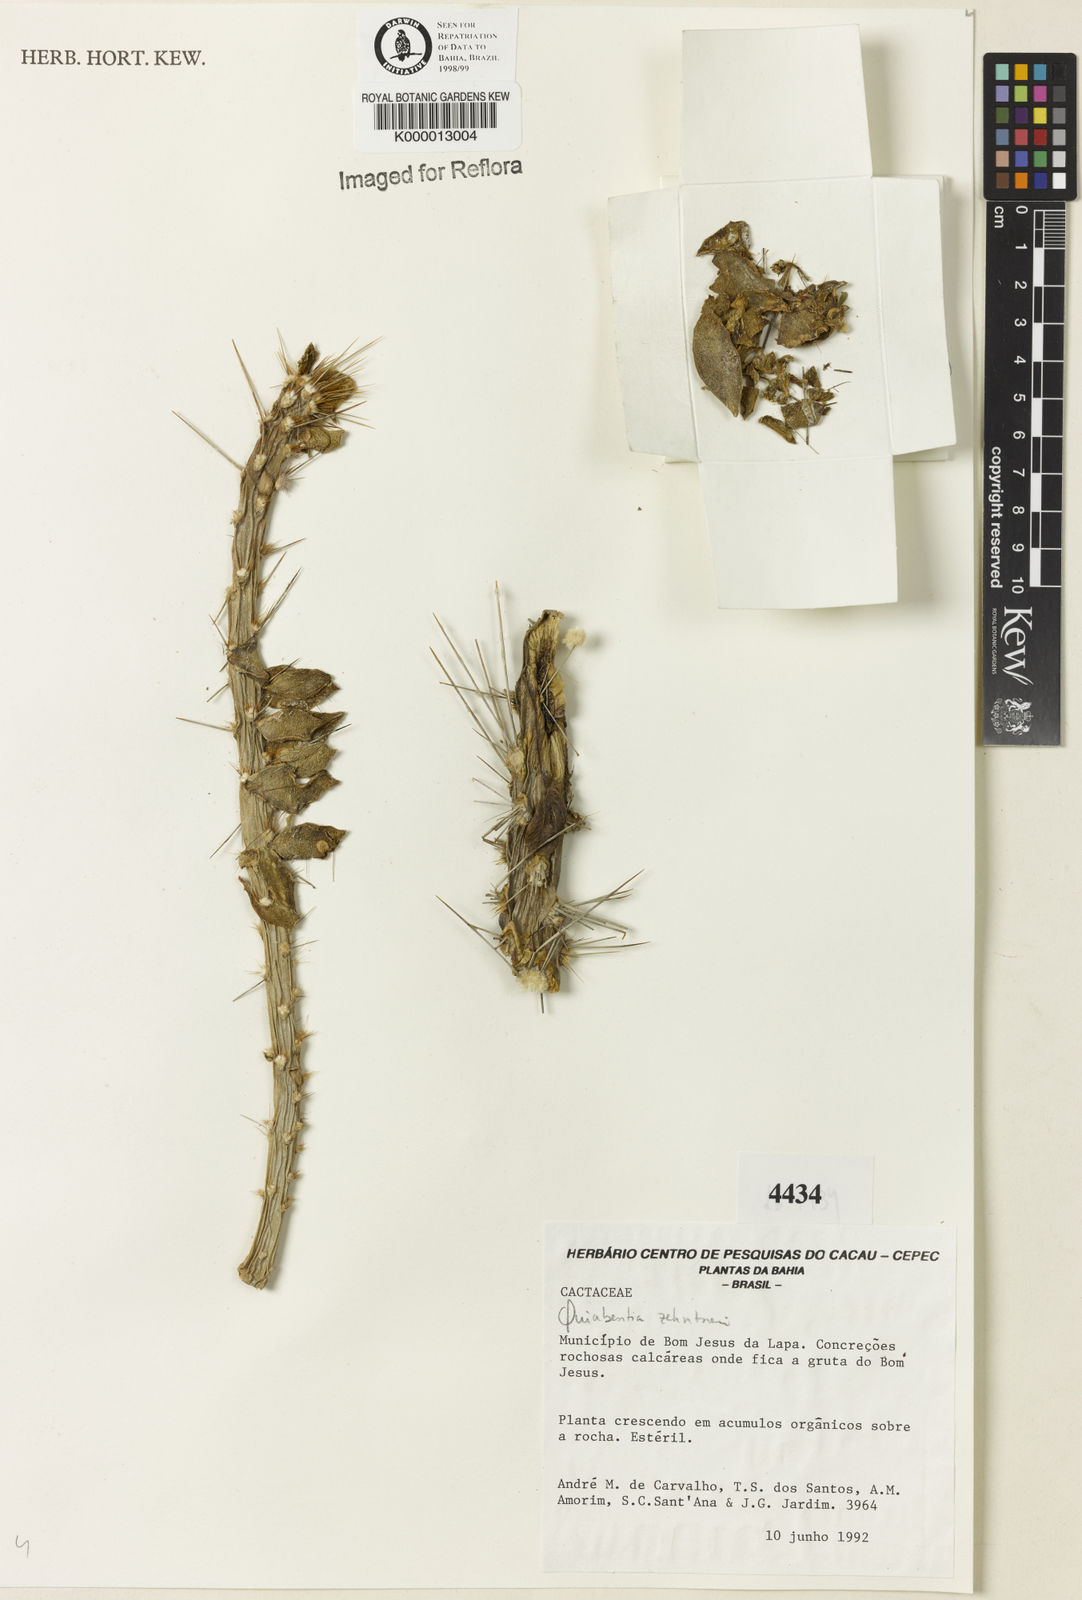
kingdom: Plantae
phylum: Tracheophyta
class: Magnoliopsida
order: Caryophyllales
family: Cactaceae
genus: Quiabentia
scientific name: Quiabentia zehntneri
